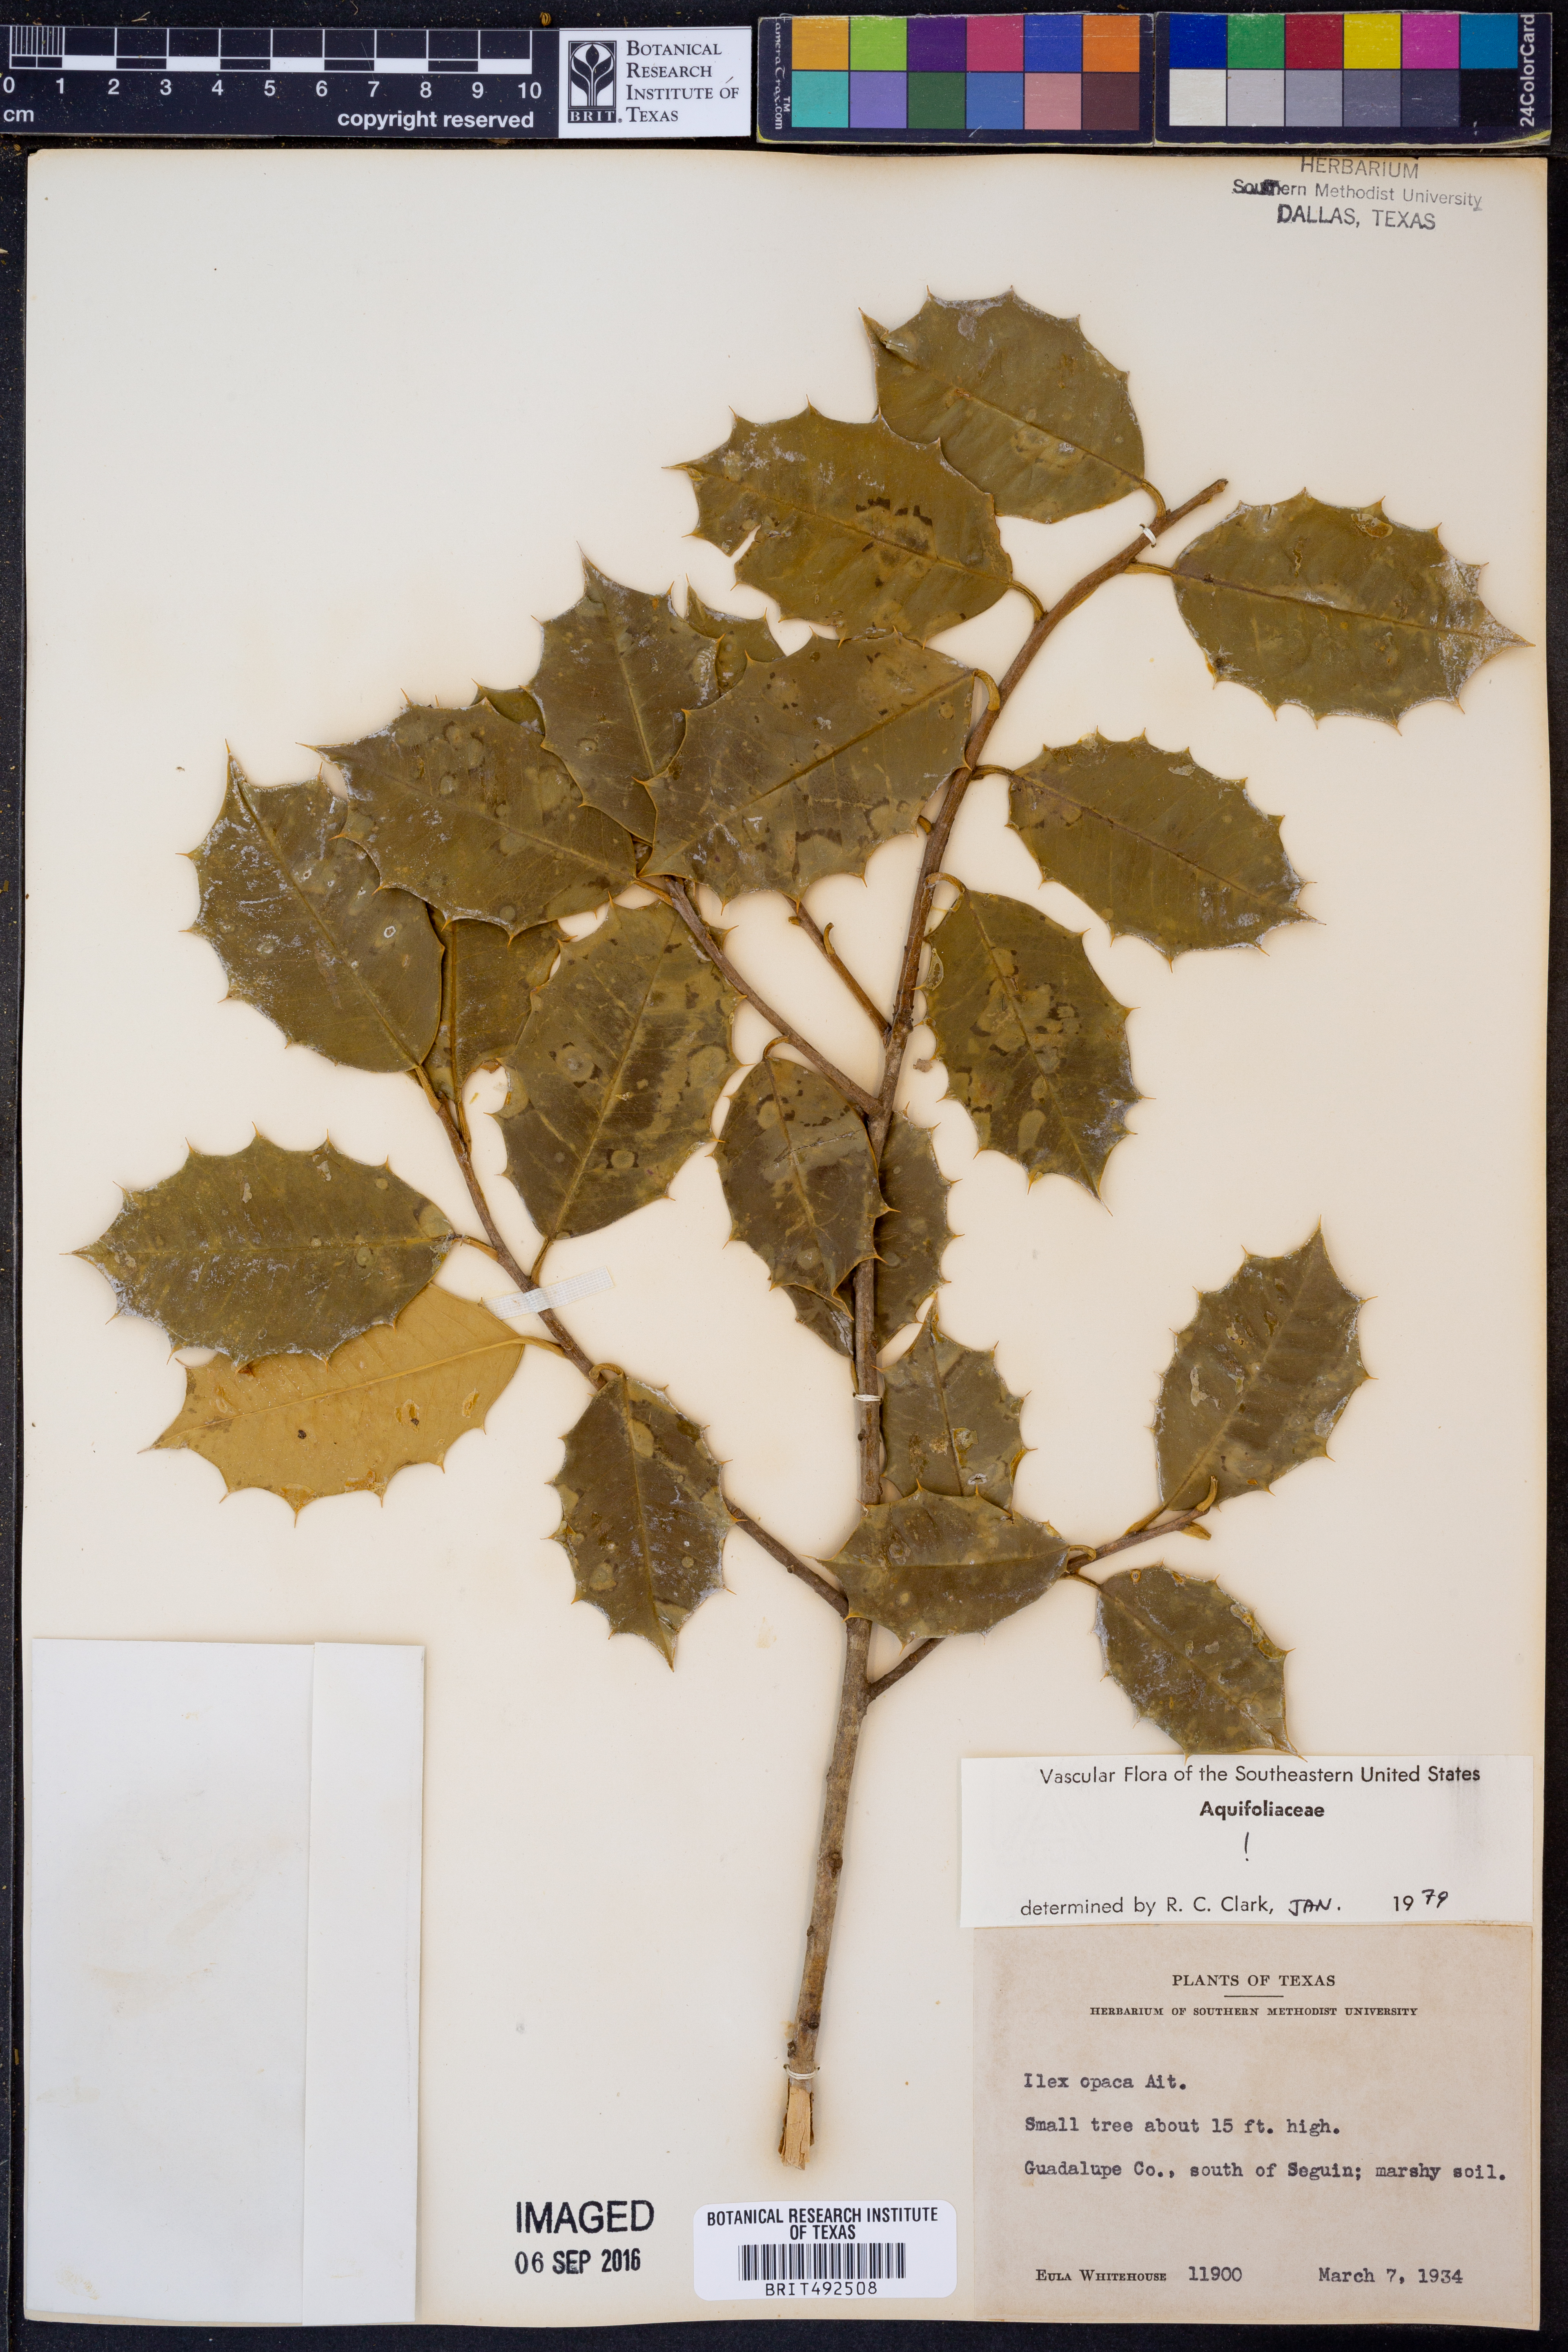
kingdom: Plantae
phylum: Tracheophyta
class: Magnoliopsida
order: Aquifoliales
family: Aquifoliaceae
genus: Ilex
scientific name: Ilex opaca
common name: American holly
